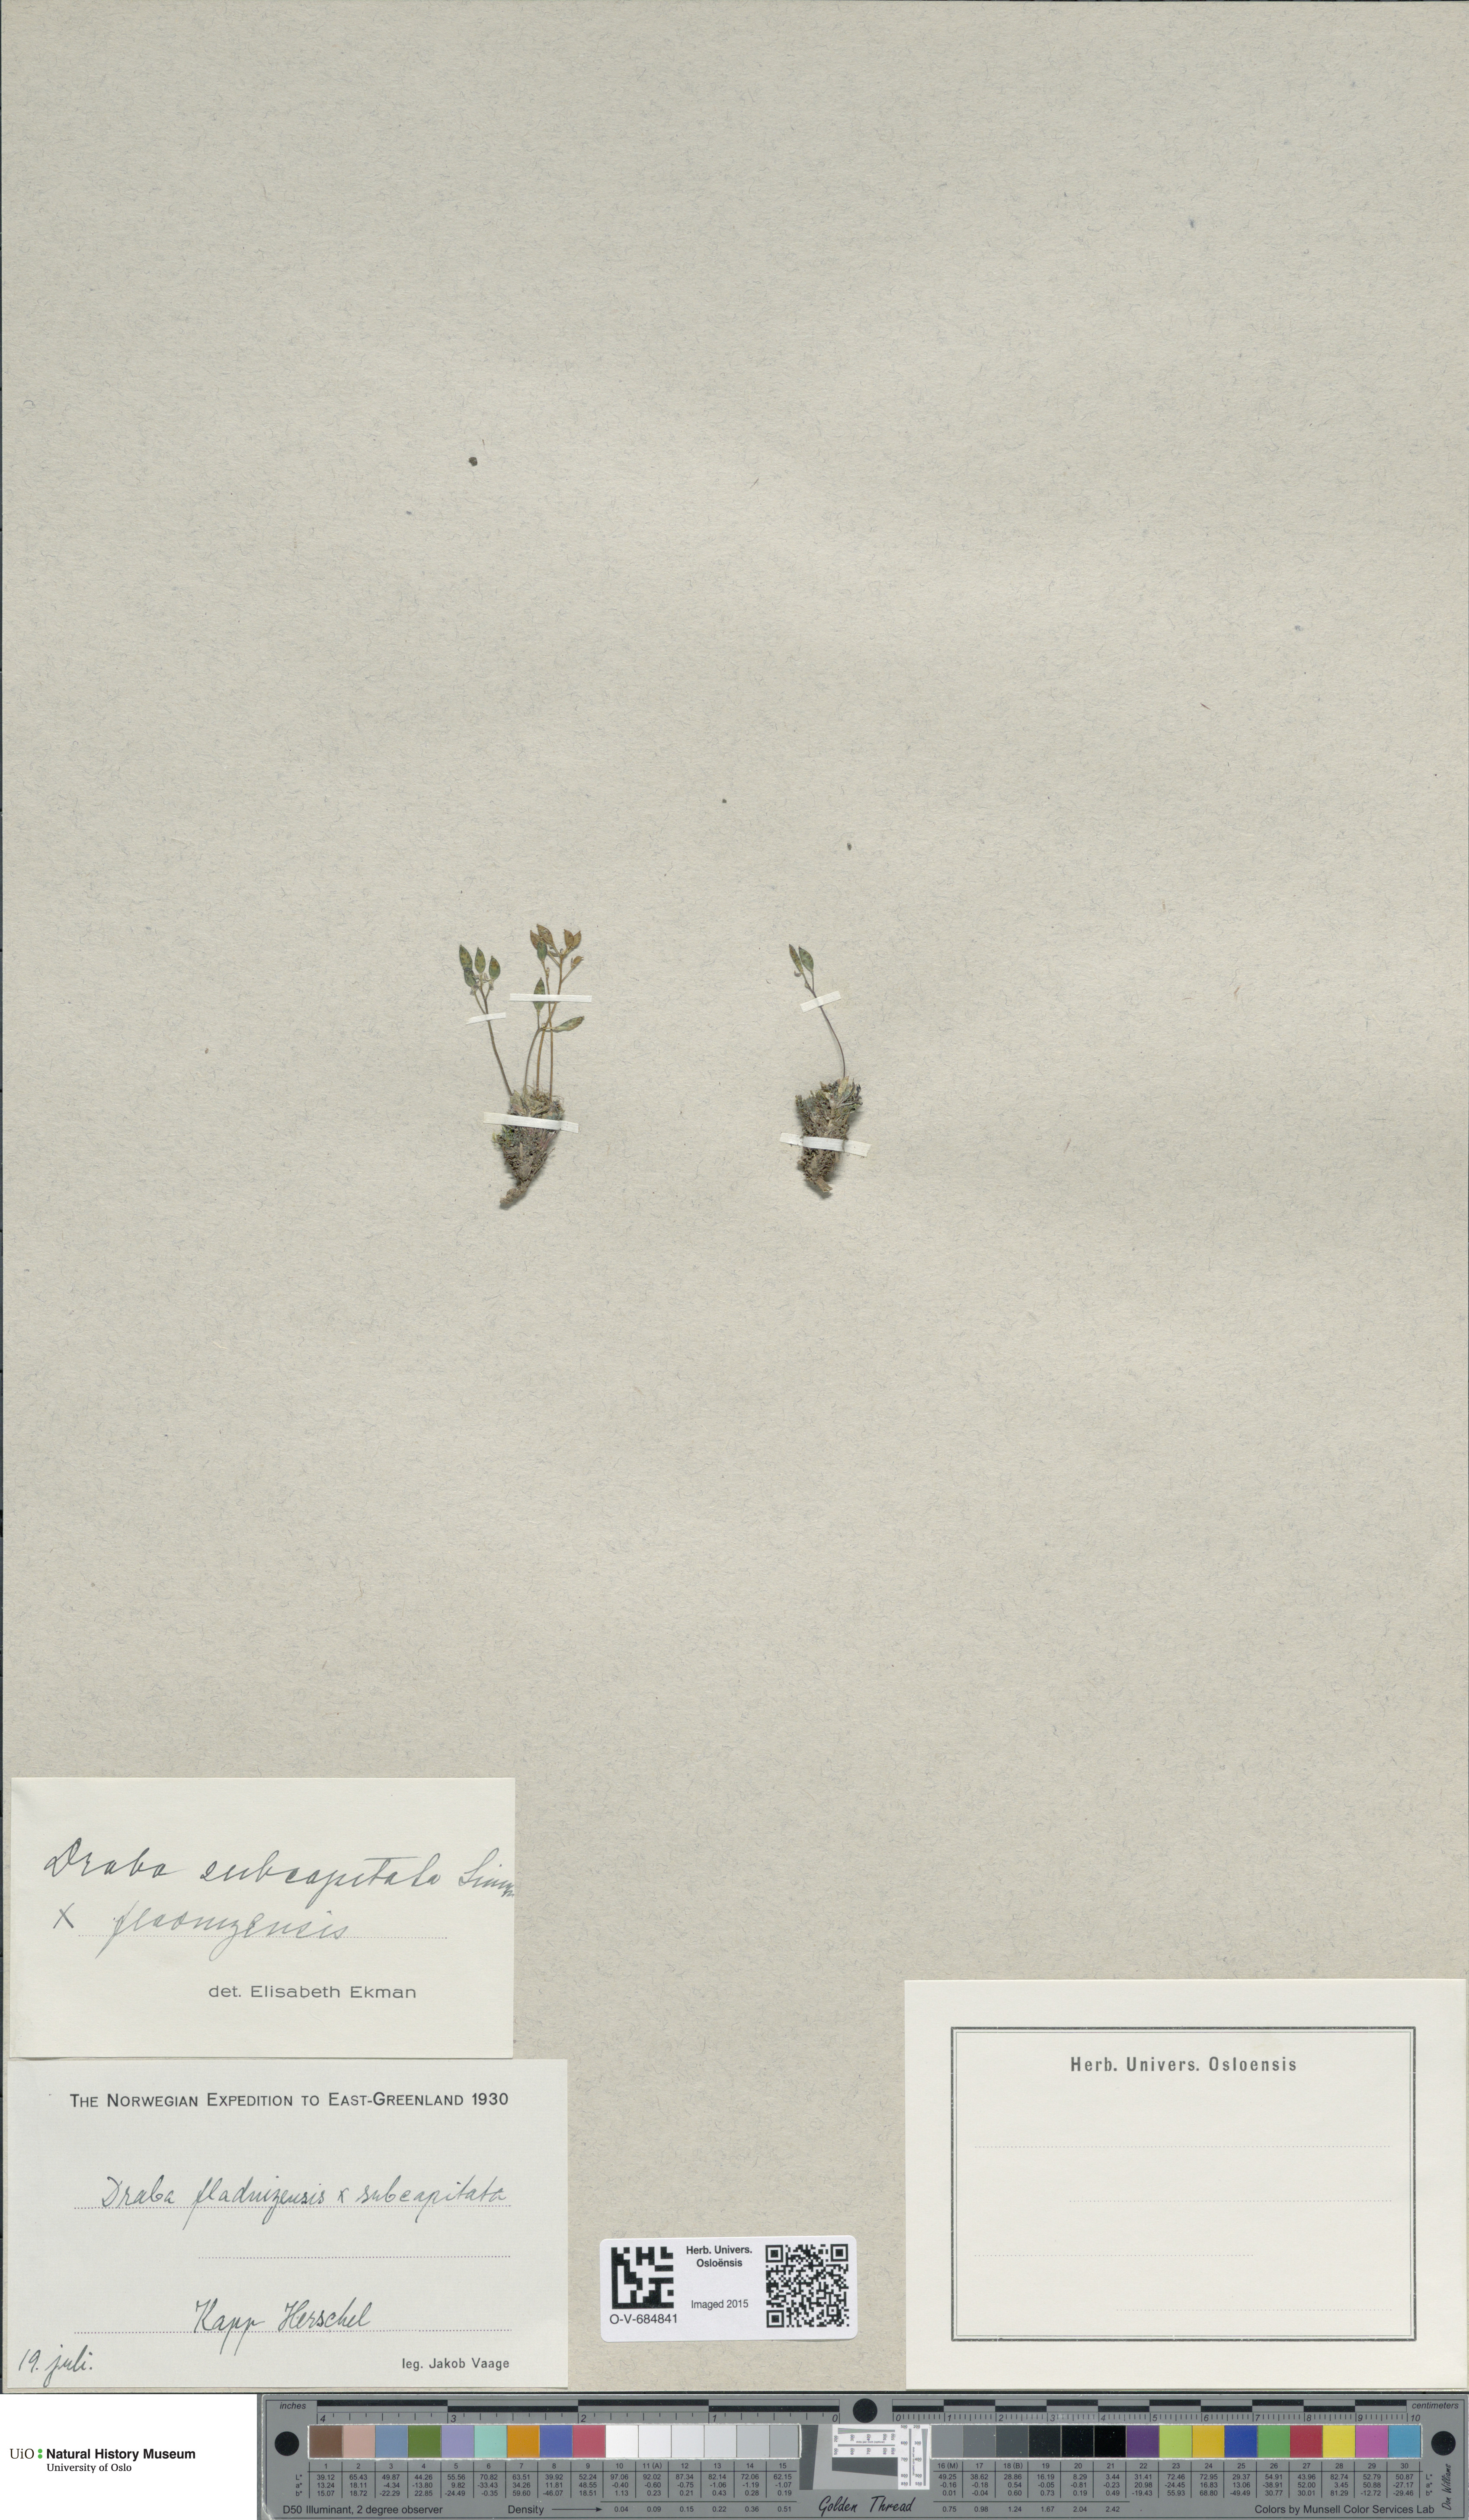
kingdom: Plantae
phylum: Tracheophyta
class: Magnoliopsida
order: Brassicales
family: Brassicaceae
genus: Draba
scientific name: Draba
